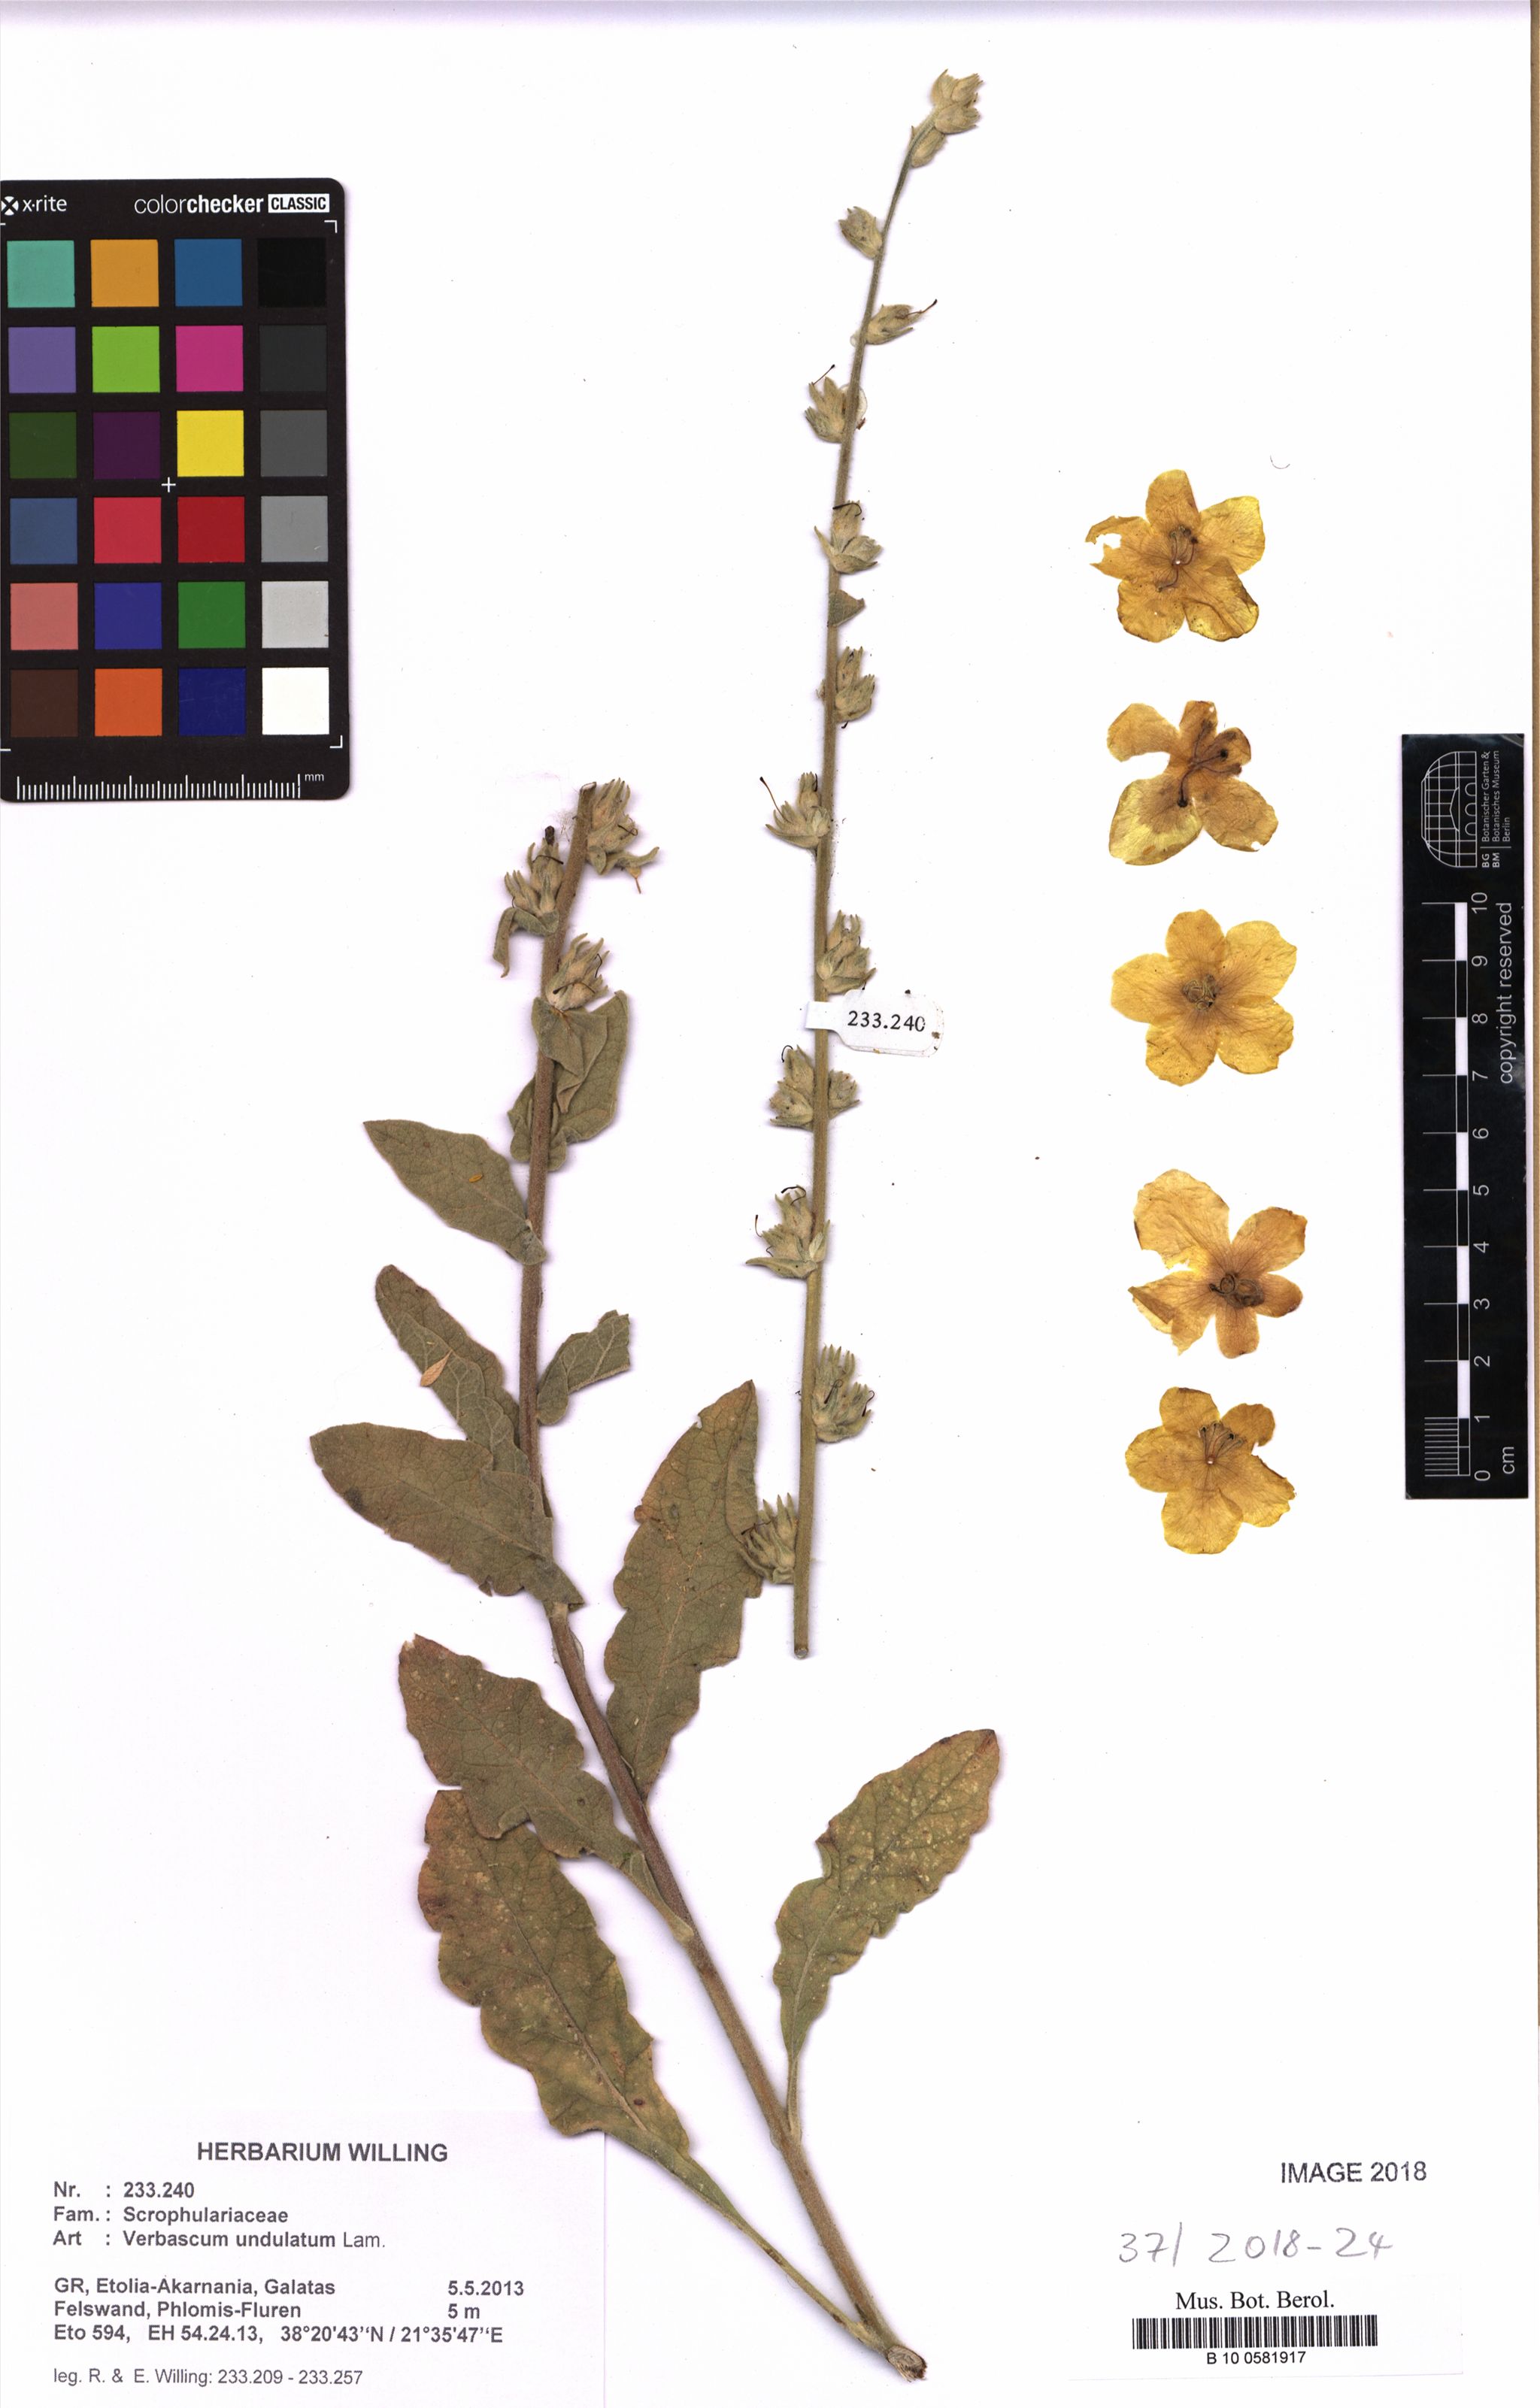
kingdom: Plantae
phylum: Tracheophyta
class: Magnoliopsida
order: Lamiales
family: Scrophulariaceae
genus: Verbascum
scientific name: Verbascum undulatum
